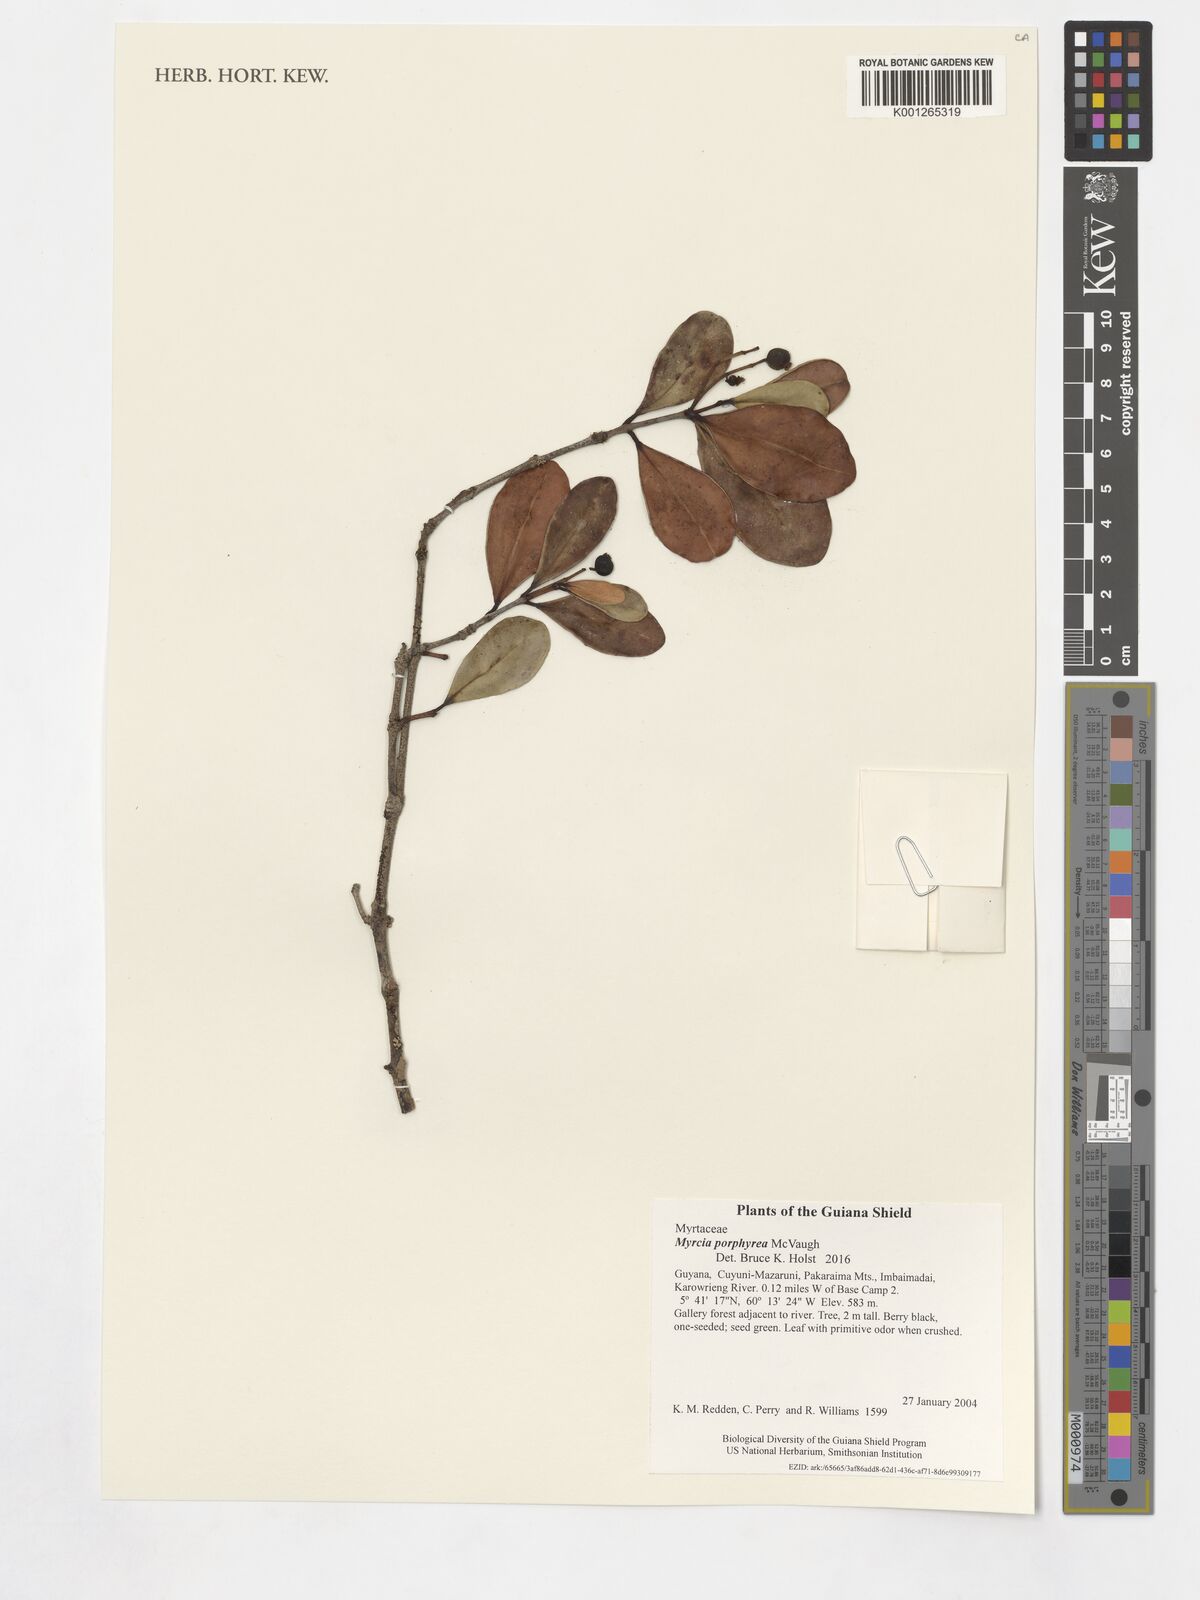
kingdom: Plantae
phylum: Tracheophyta
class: Magnoliopsida
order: Myrtales
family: Myrtaceae
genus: Myrcia
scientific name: Myrcia porphyrea
